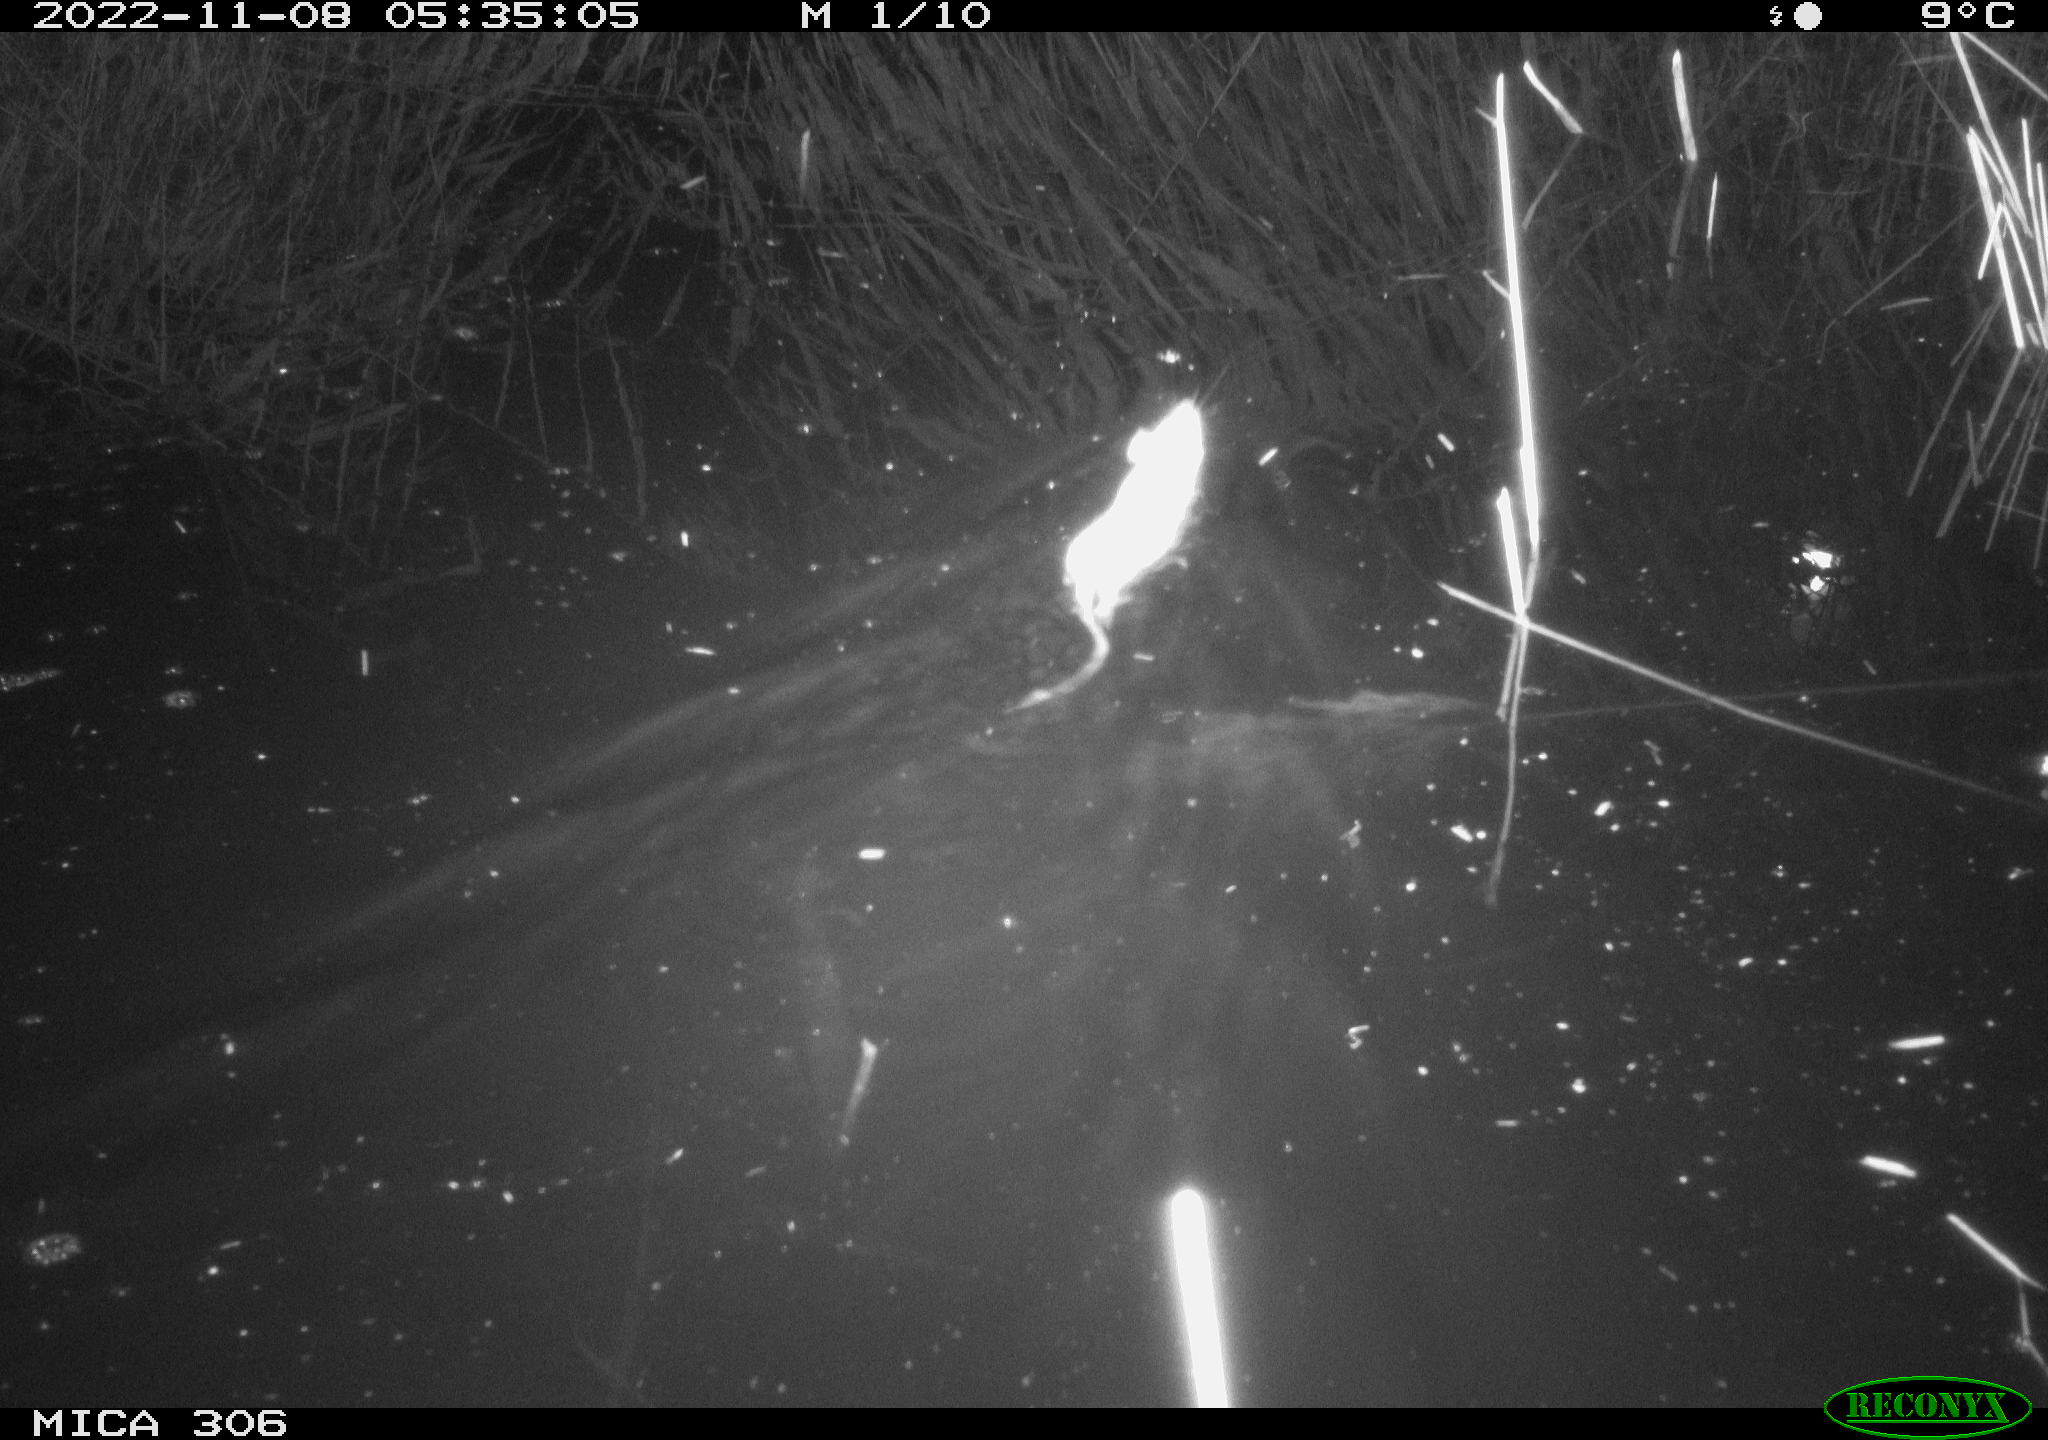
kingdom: Animalia
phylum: Chordata
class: Mammalia
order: Rodentia
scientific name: Rodentia
